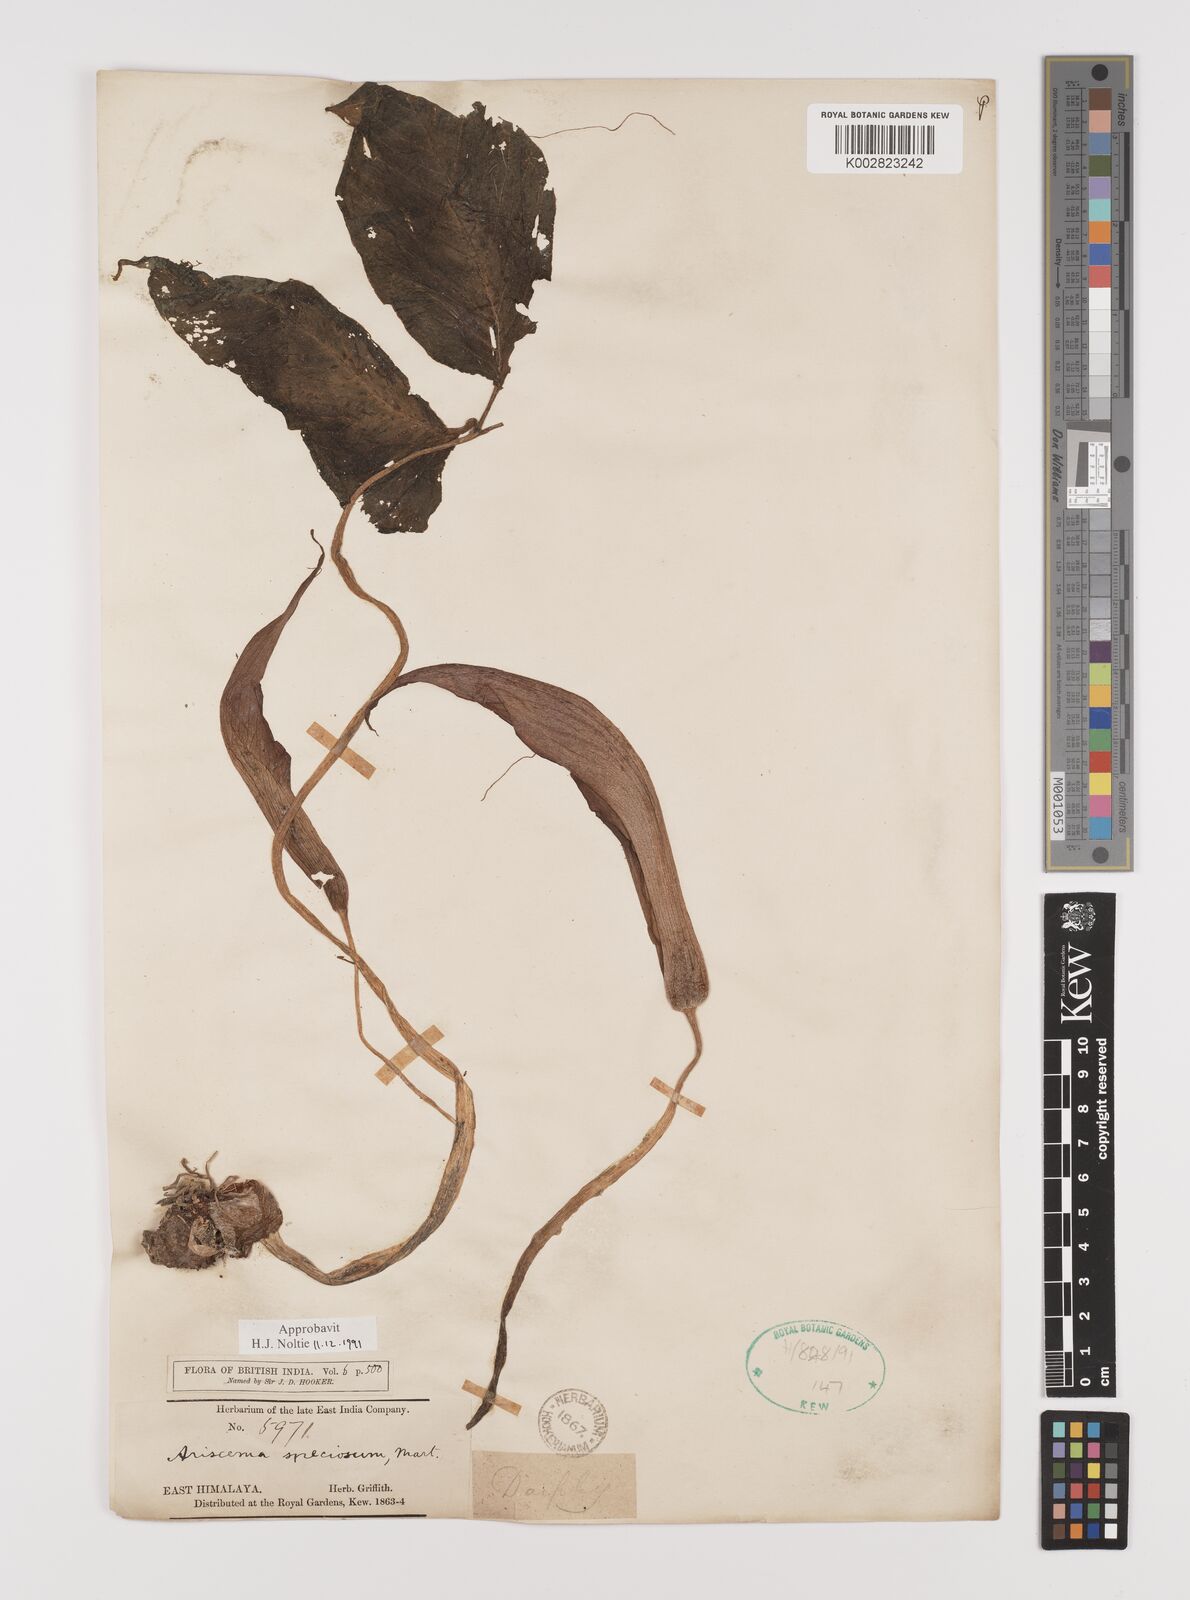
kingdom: Plantae
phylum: Tracheophyta
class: Liliopsida
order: Alismatales
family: Araceae
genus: Arisaema
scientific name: Arisaema speciosum
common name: Showy cobra-lily
